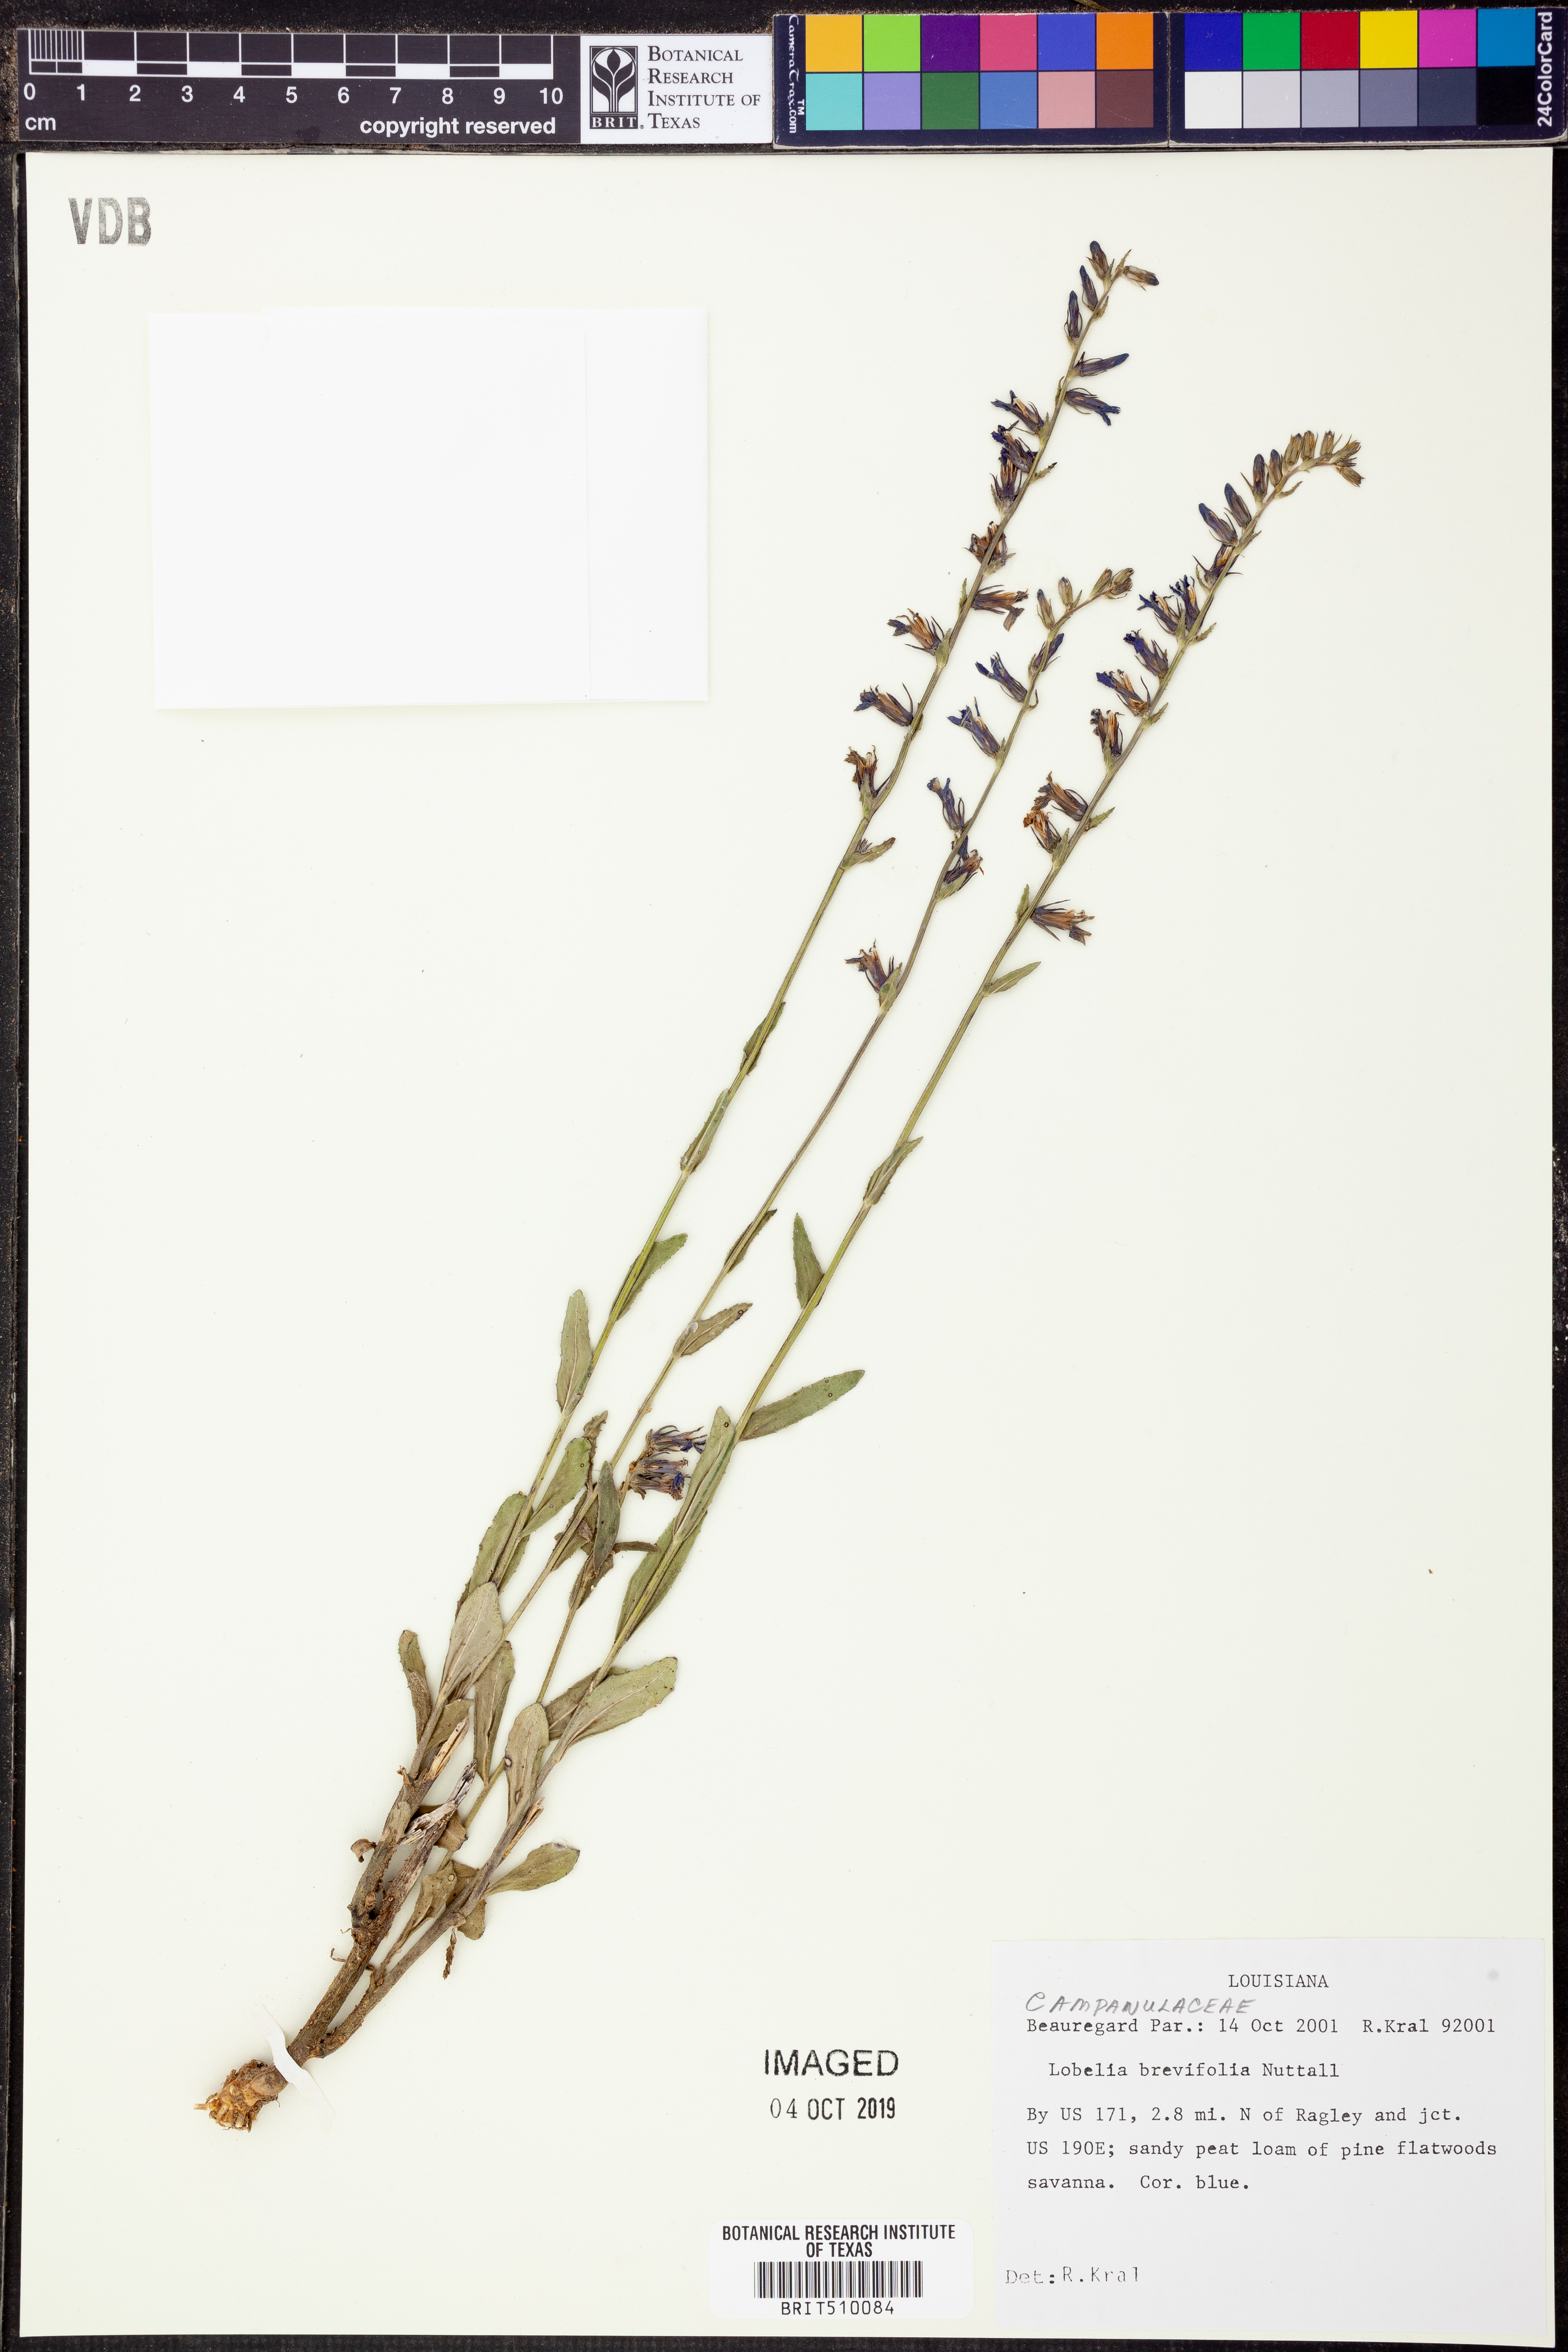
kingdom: Plantae
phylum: Tracheophyta
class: Magnoliopsida
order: Asterales
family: Campanulaceae
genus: Lobelia
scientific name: Lobelia brevifolia
